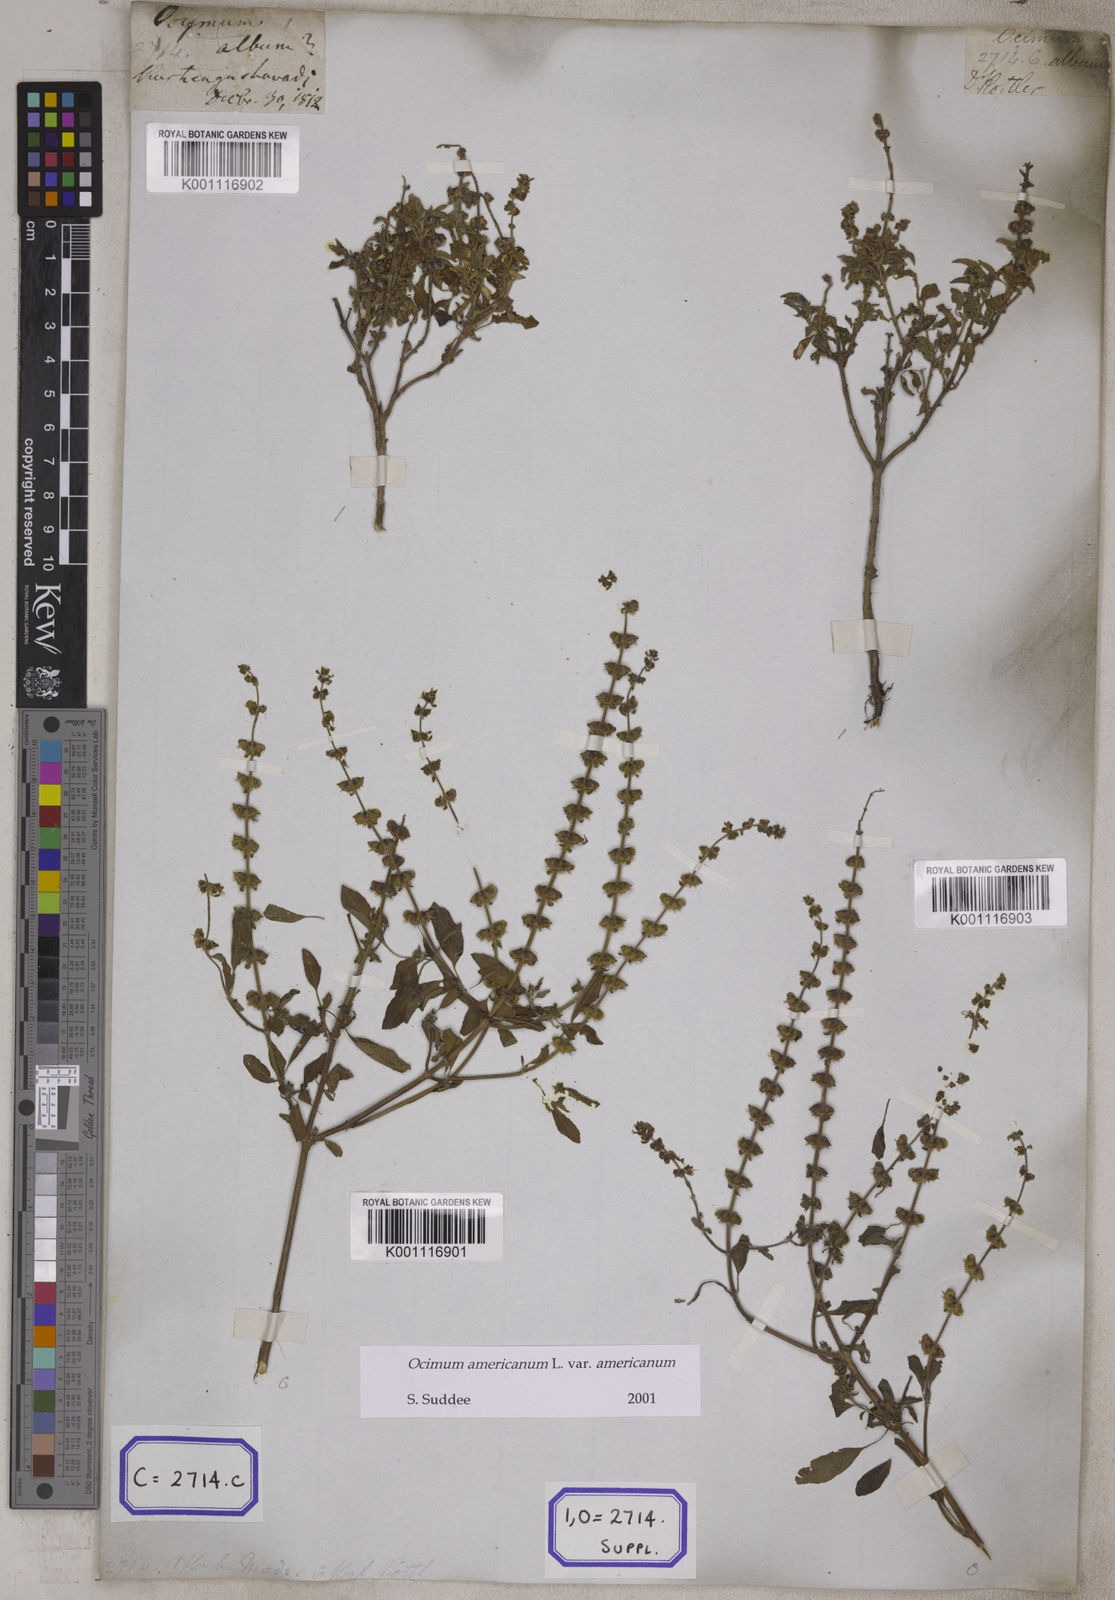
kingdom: Plantae
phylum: Tracheophyta
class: Magnoliopsida
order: Lamiales
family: Lamiaceae
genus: Ocimum
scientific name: Ocimum americanum
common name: American basil
